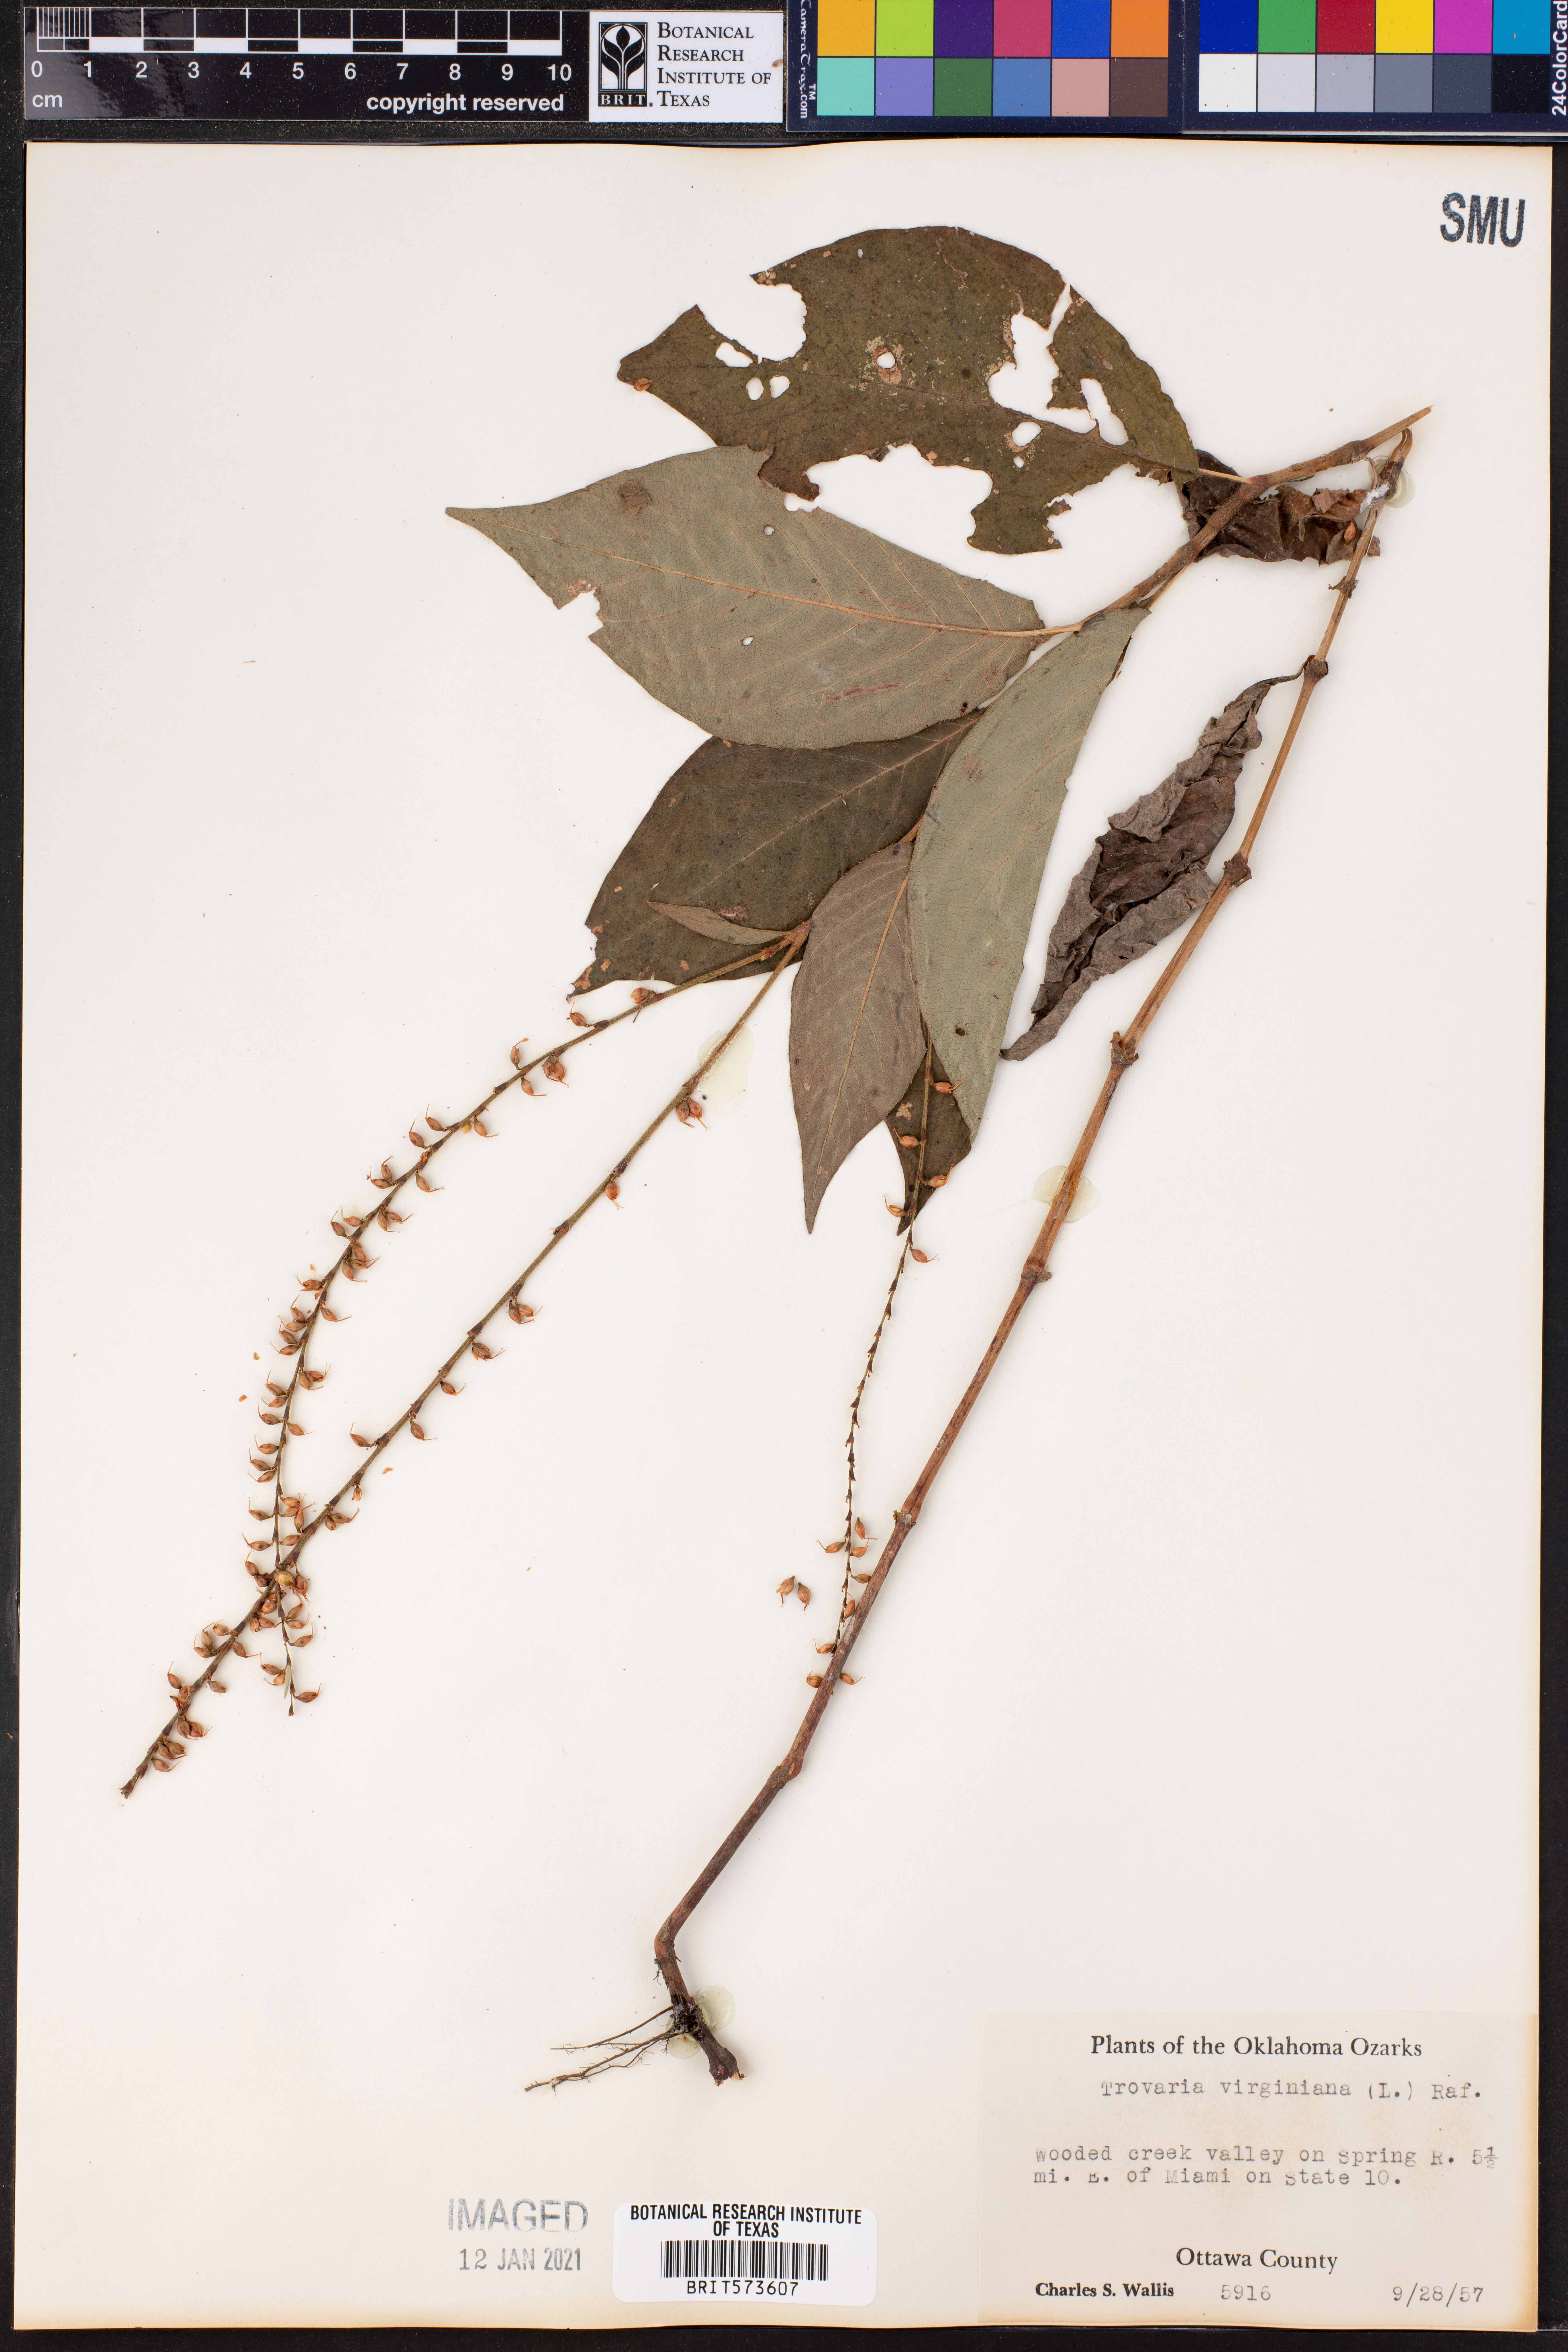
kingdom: Plantae
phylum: Tracheophyta
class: Magnoliopsida
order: Caryophyllales
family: Polygonaceae
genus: Persicaria
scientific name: Persicaria virginiana
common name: Jumpseed
